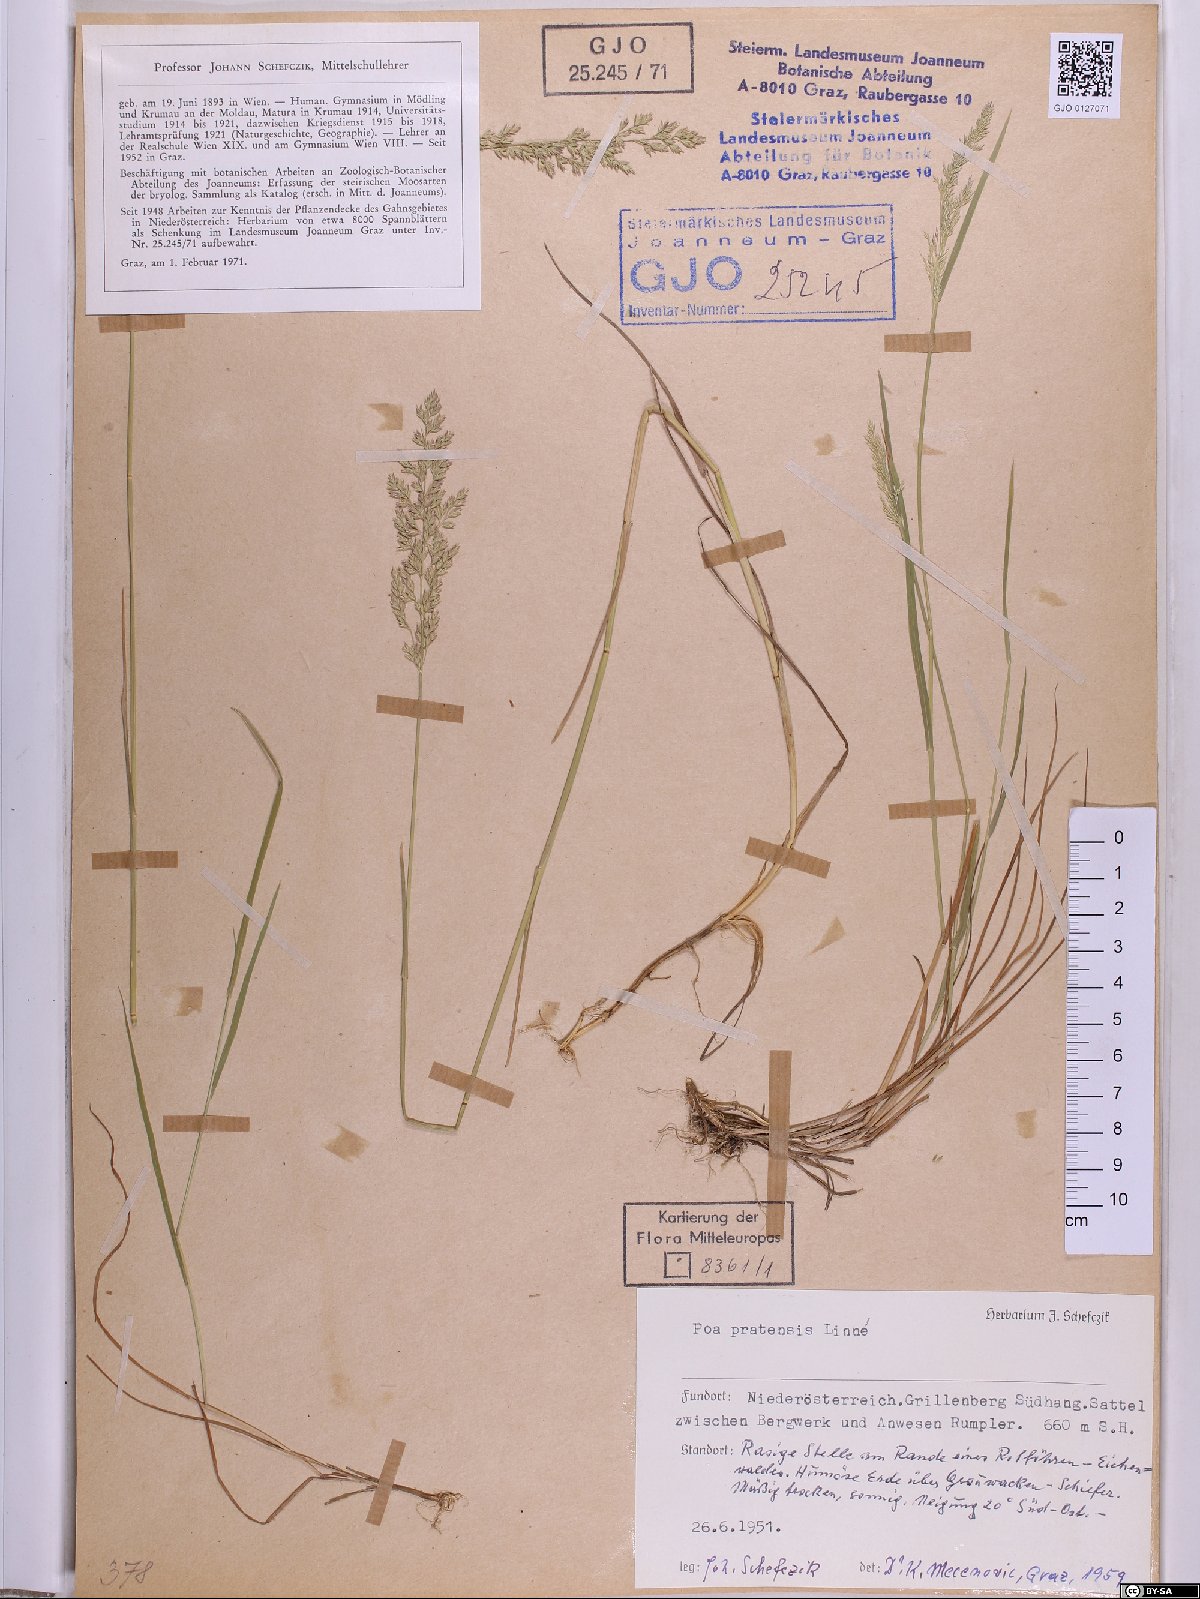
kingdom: Plantae
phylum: Tracheophyta
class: Liliopsida
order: Poales
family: Poaceae
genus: Poa
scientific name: Poa pratensis
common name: Kentucky bluegrass
